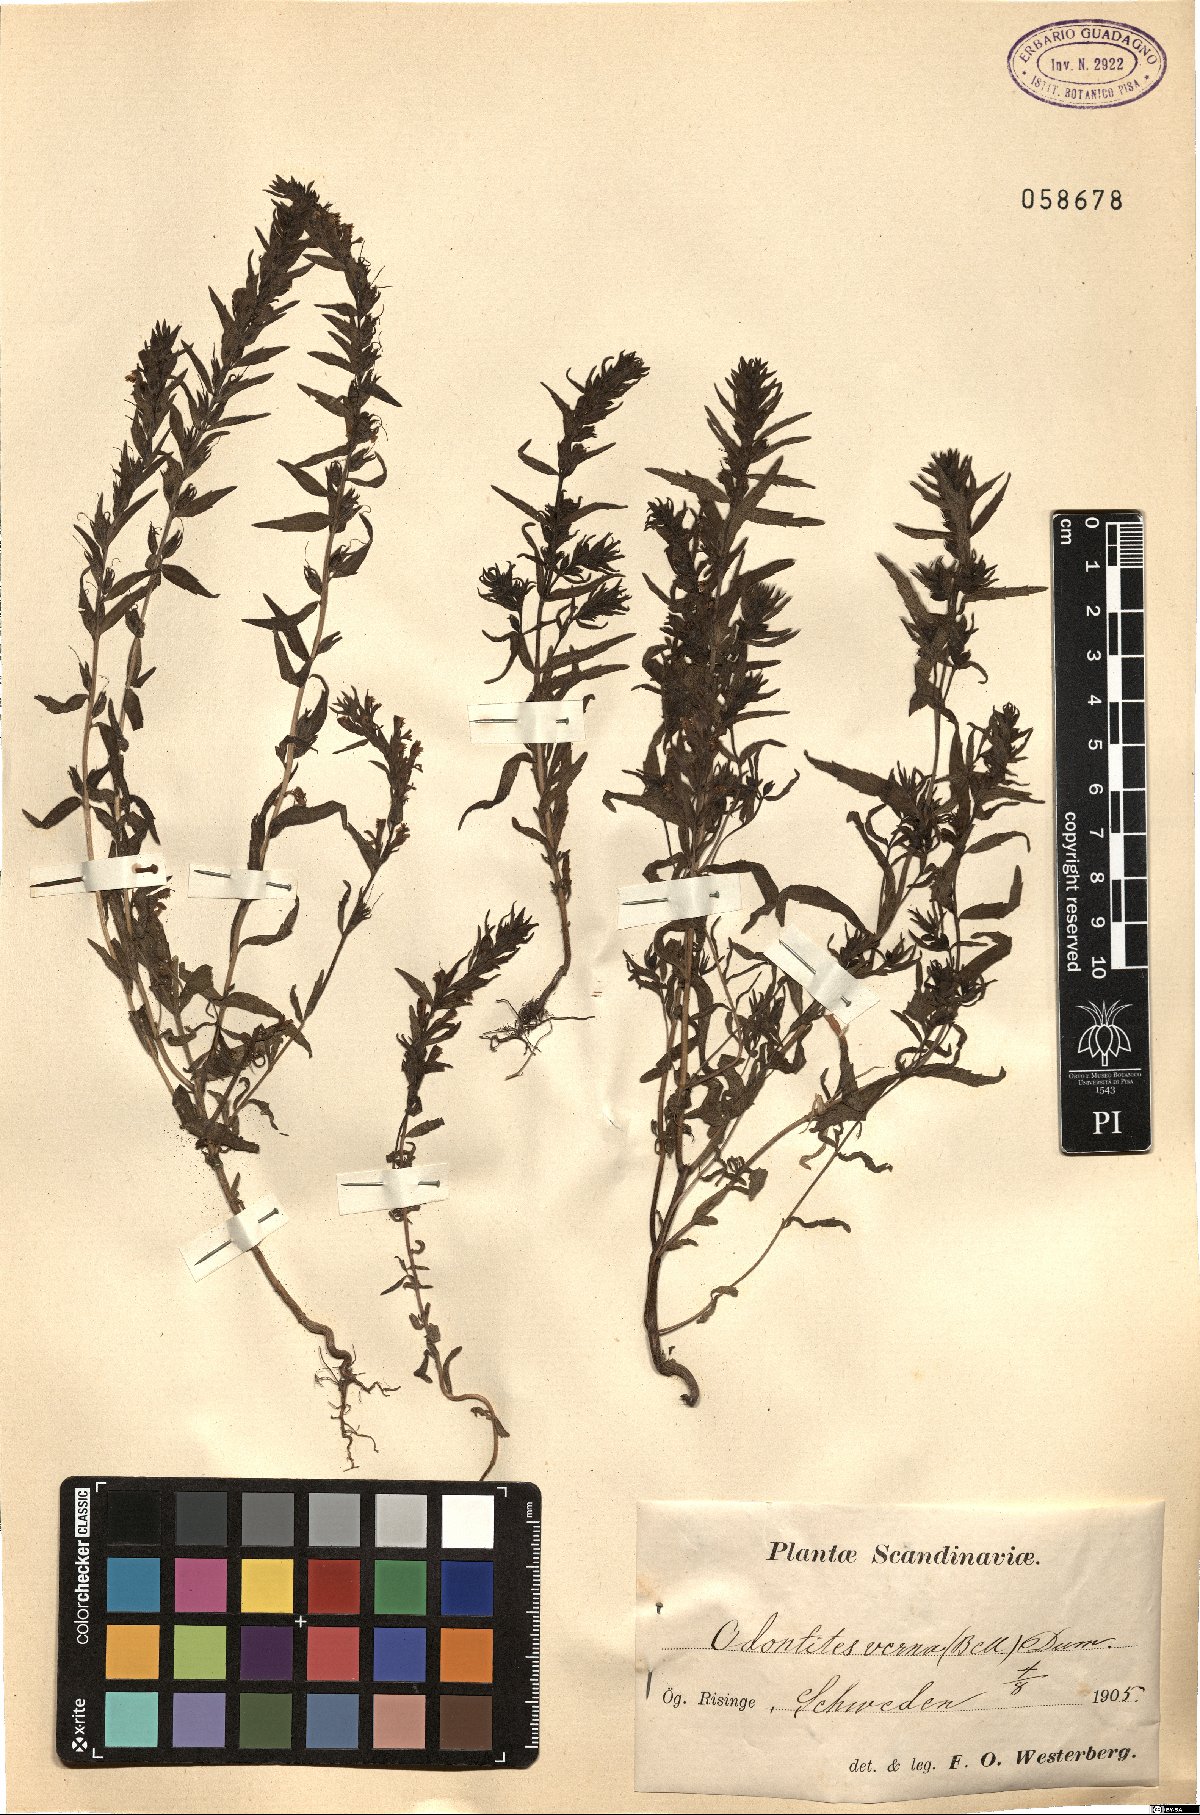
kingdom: Plantae
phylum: Tracheophyta
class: Magnoliopsida
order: Lamiales
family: Orobanchaceae
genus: Odontites
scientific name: Odontites vernus
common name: Red bartsia
